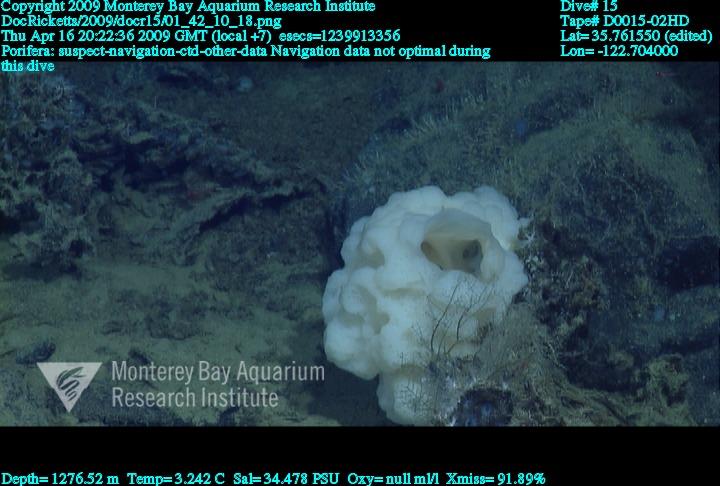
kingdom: Animalia
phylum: Porifera
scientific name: Porifera
